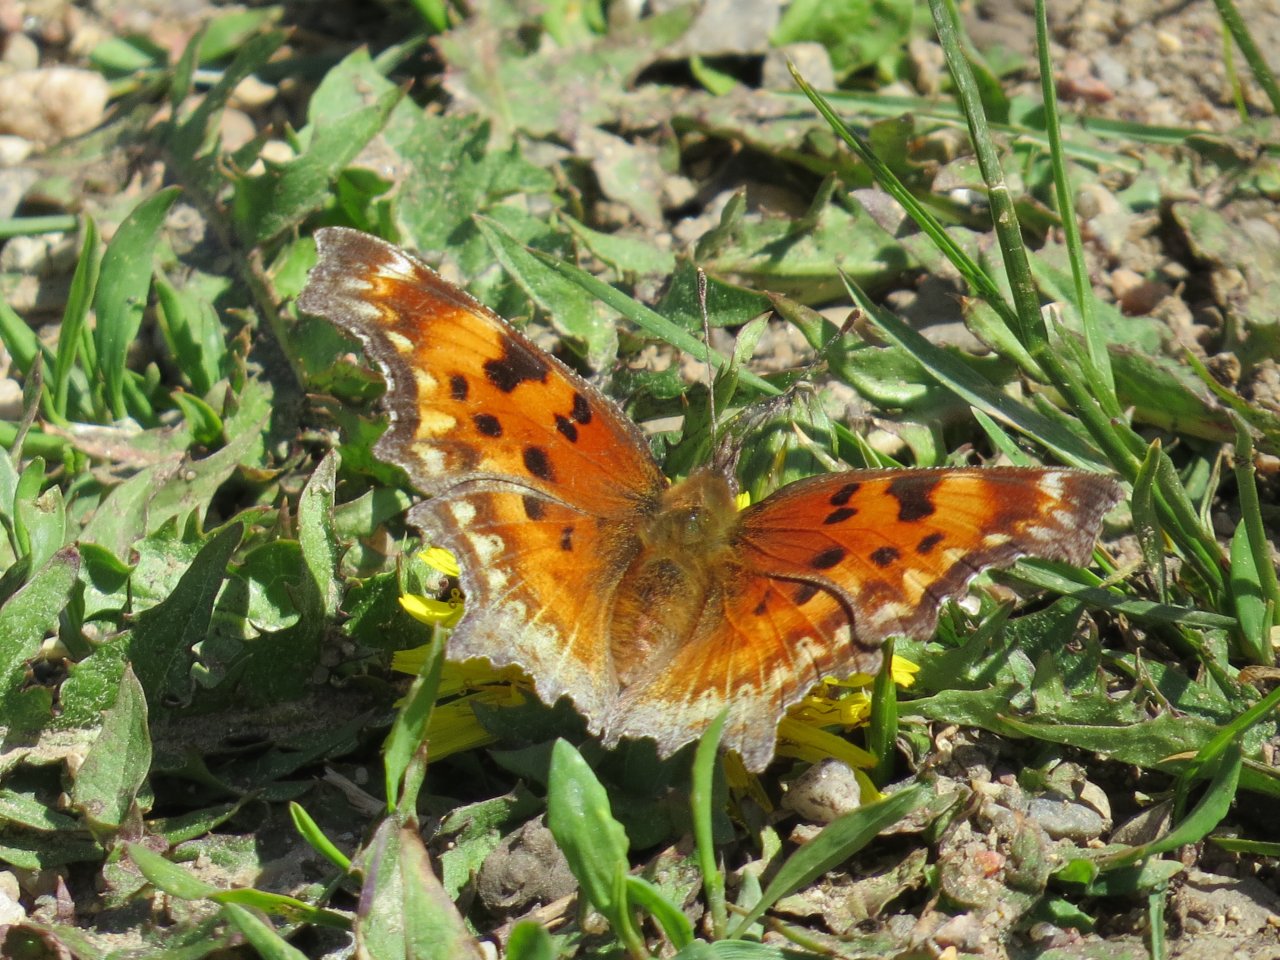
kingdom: Animalia
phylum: Arthropoda
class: Insecta
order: Lepidoptera
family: Nymphalidae
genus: Polygonia
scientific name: Polygonia progne
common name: Gray Comma
